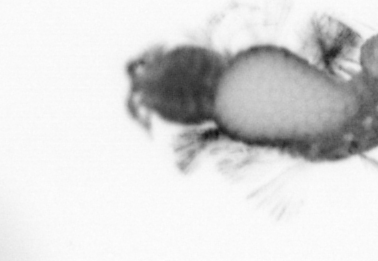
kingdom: Animalia
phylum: Annelida
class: Polychaeta
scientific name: Polychaeta
